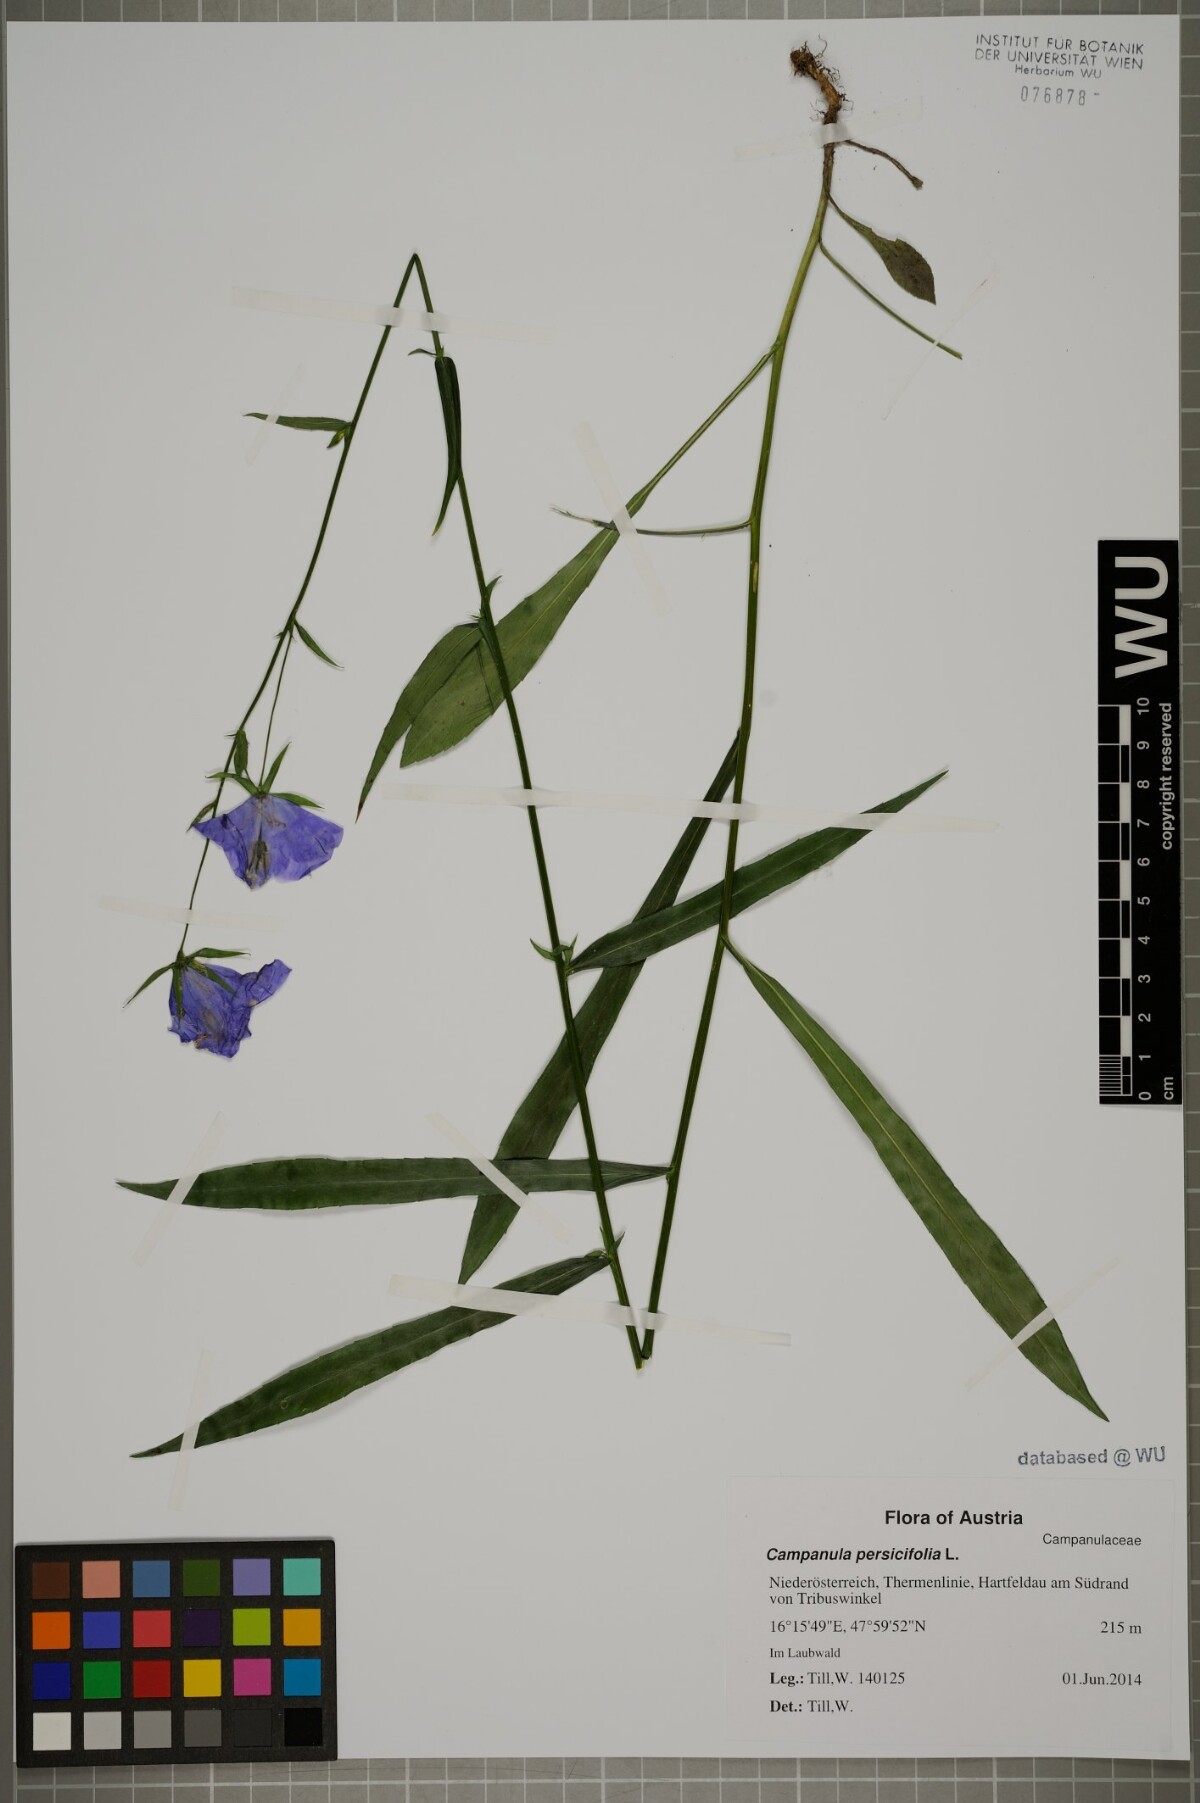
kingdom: Plantae
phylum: Tracheophyta
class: Magnoliopsida
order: Asterales
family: Campanulaceae
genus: Campanula
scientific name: Campanula persicifolia
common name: Peach-leaved bellflower
